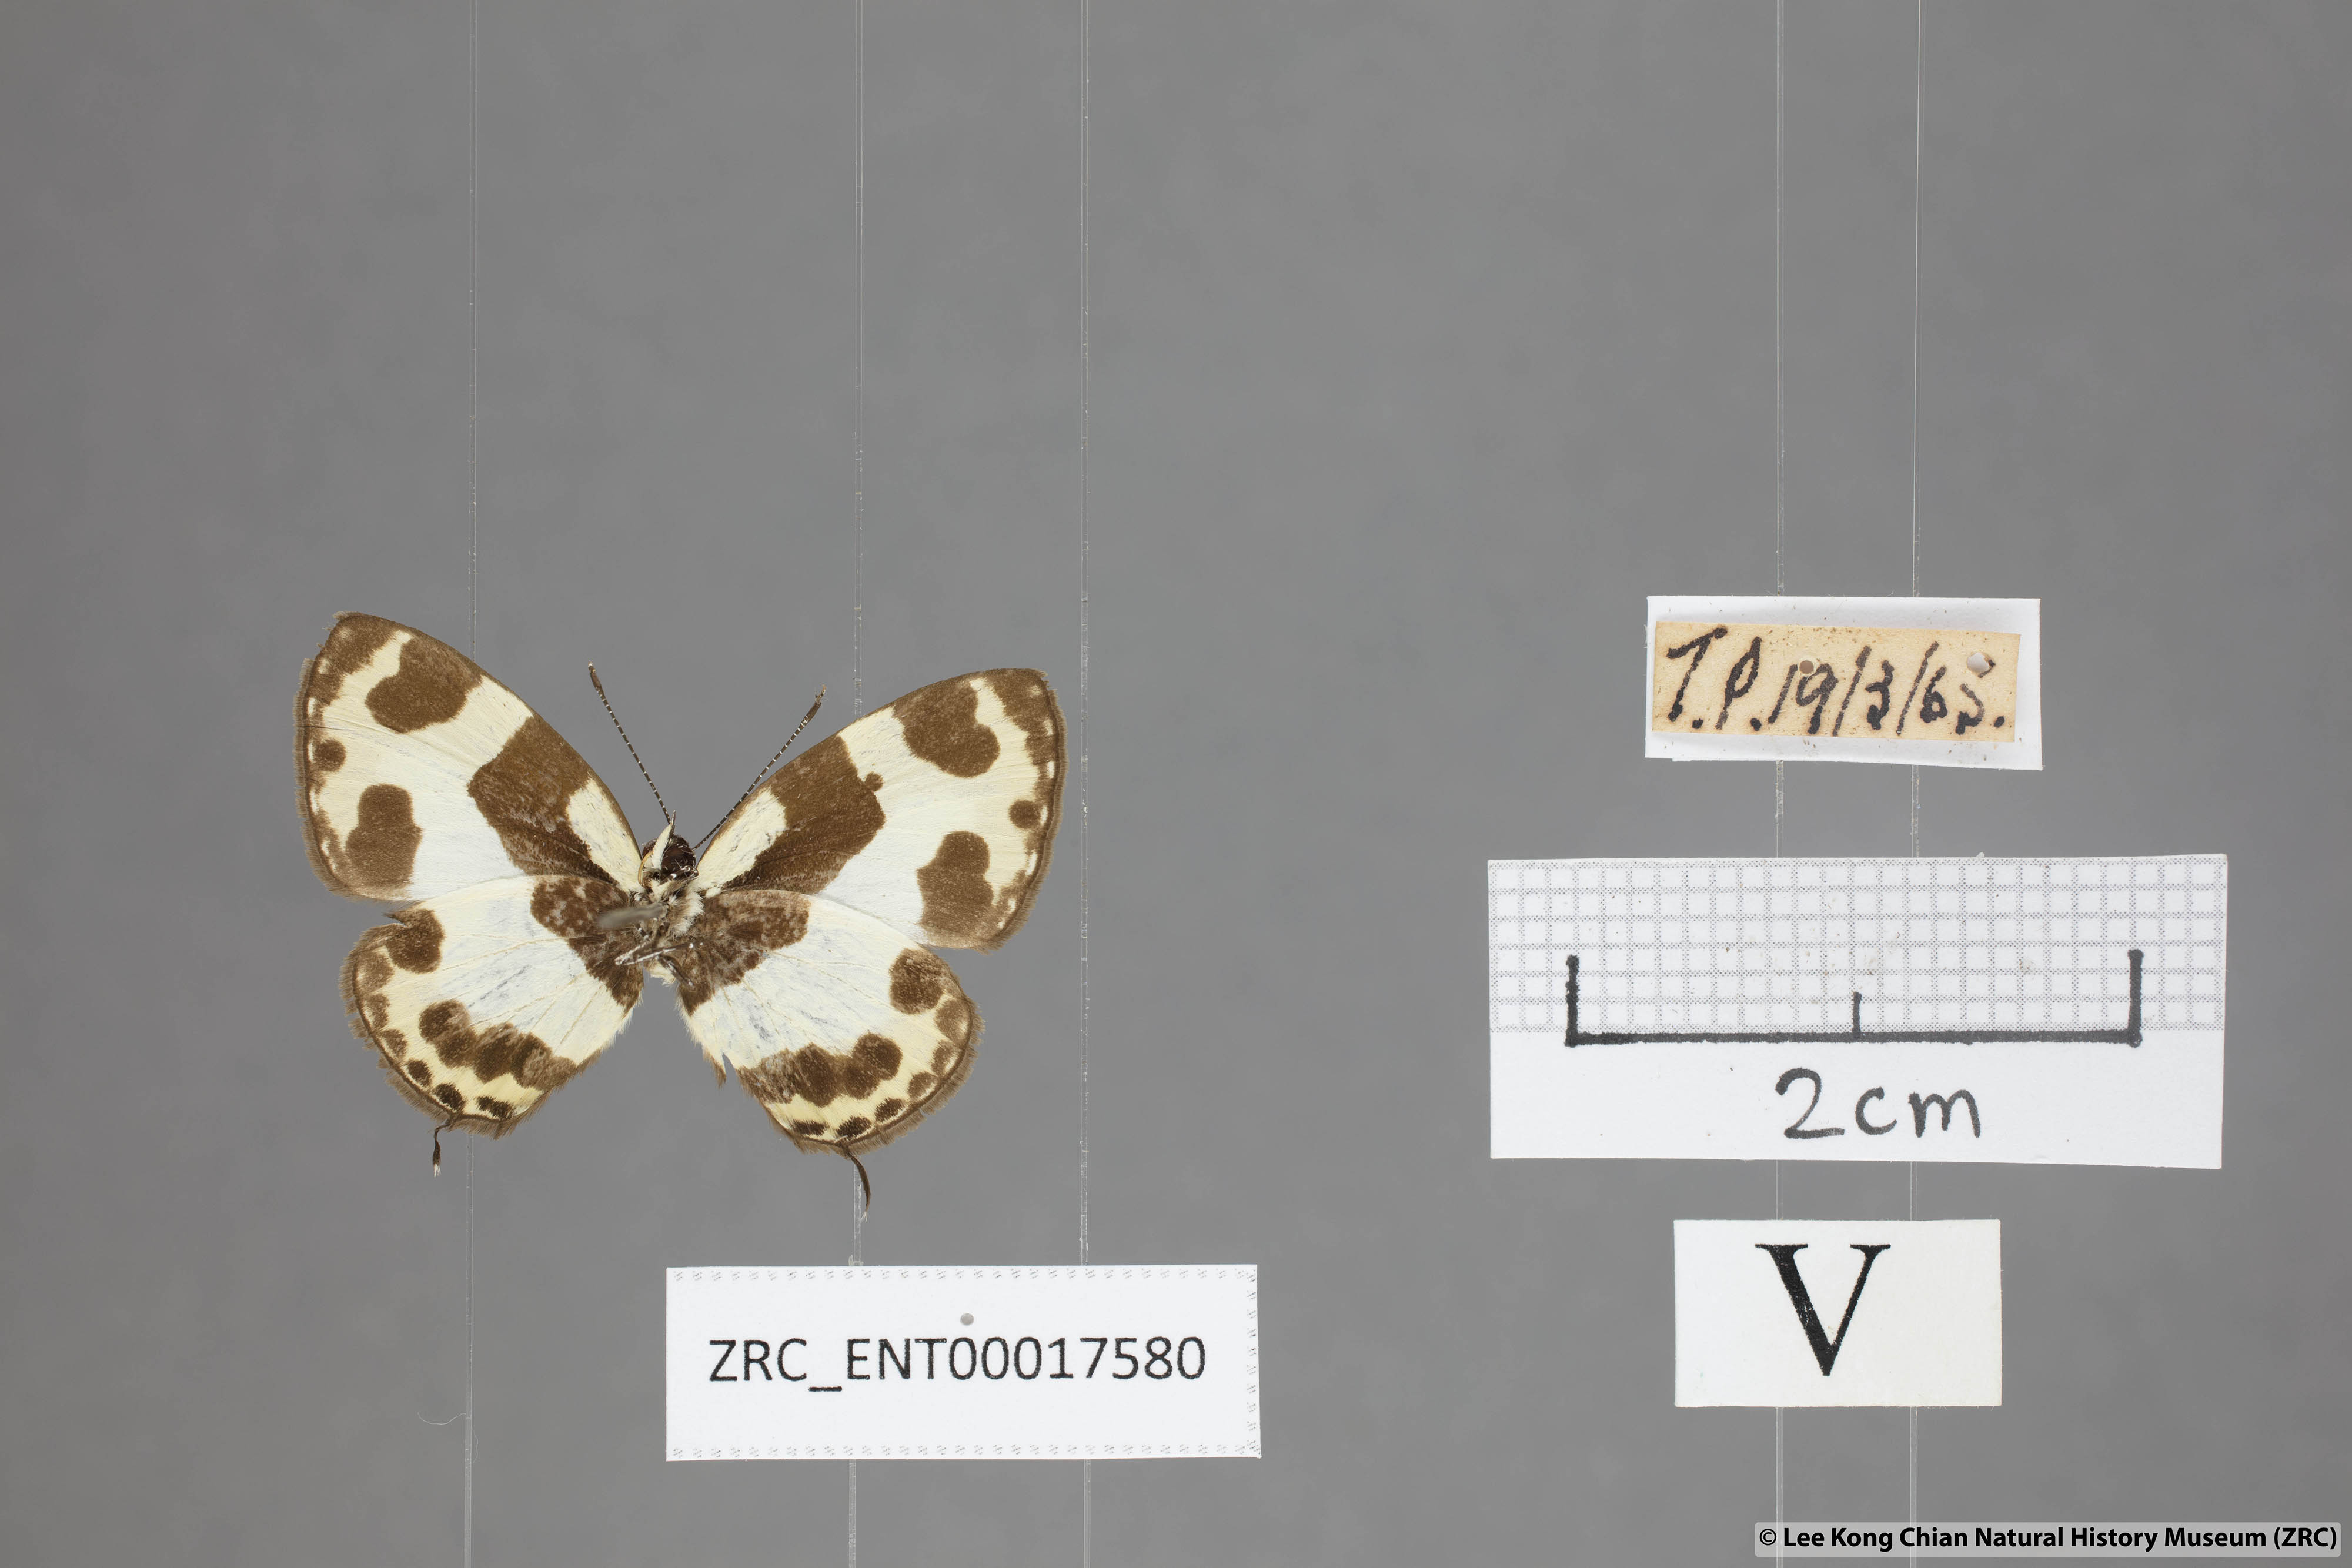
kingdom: Animalia
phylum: Arthropoda
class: Insecta
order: Lepidoptera
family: Lycaenidae
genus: Caleta
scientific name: Caleta elna
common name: Elbowed pierrot
